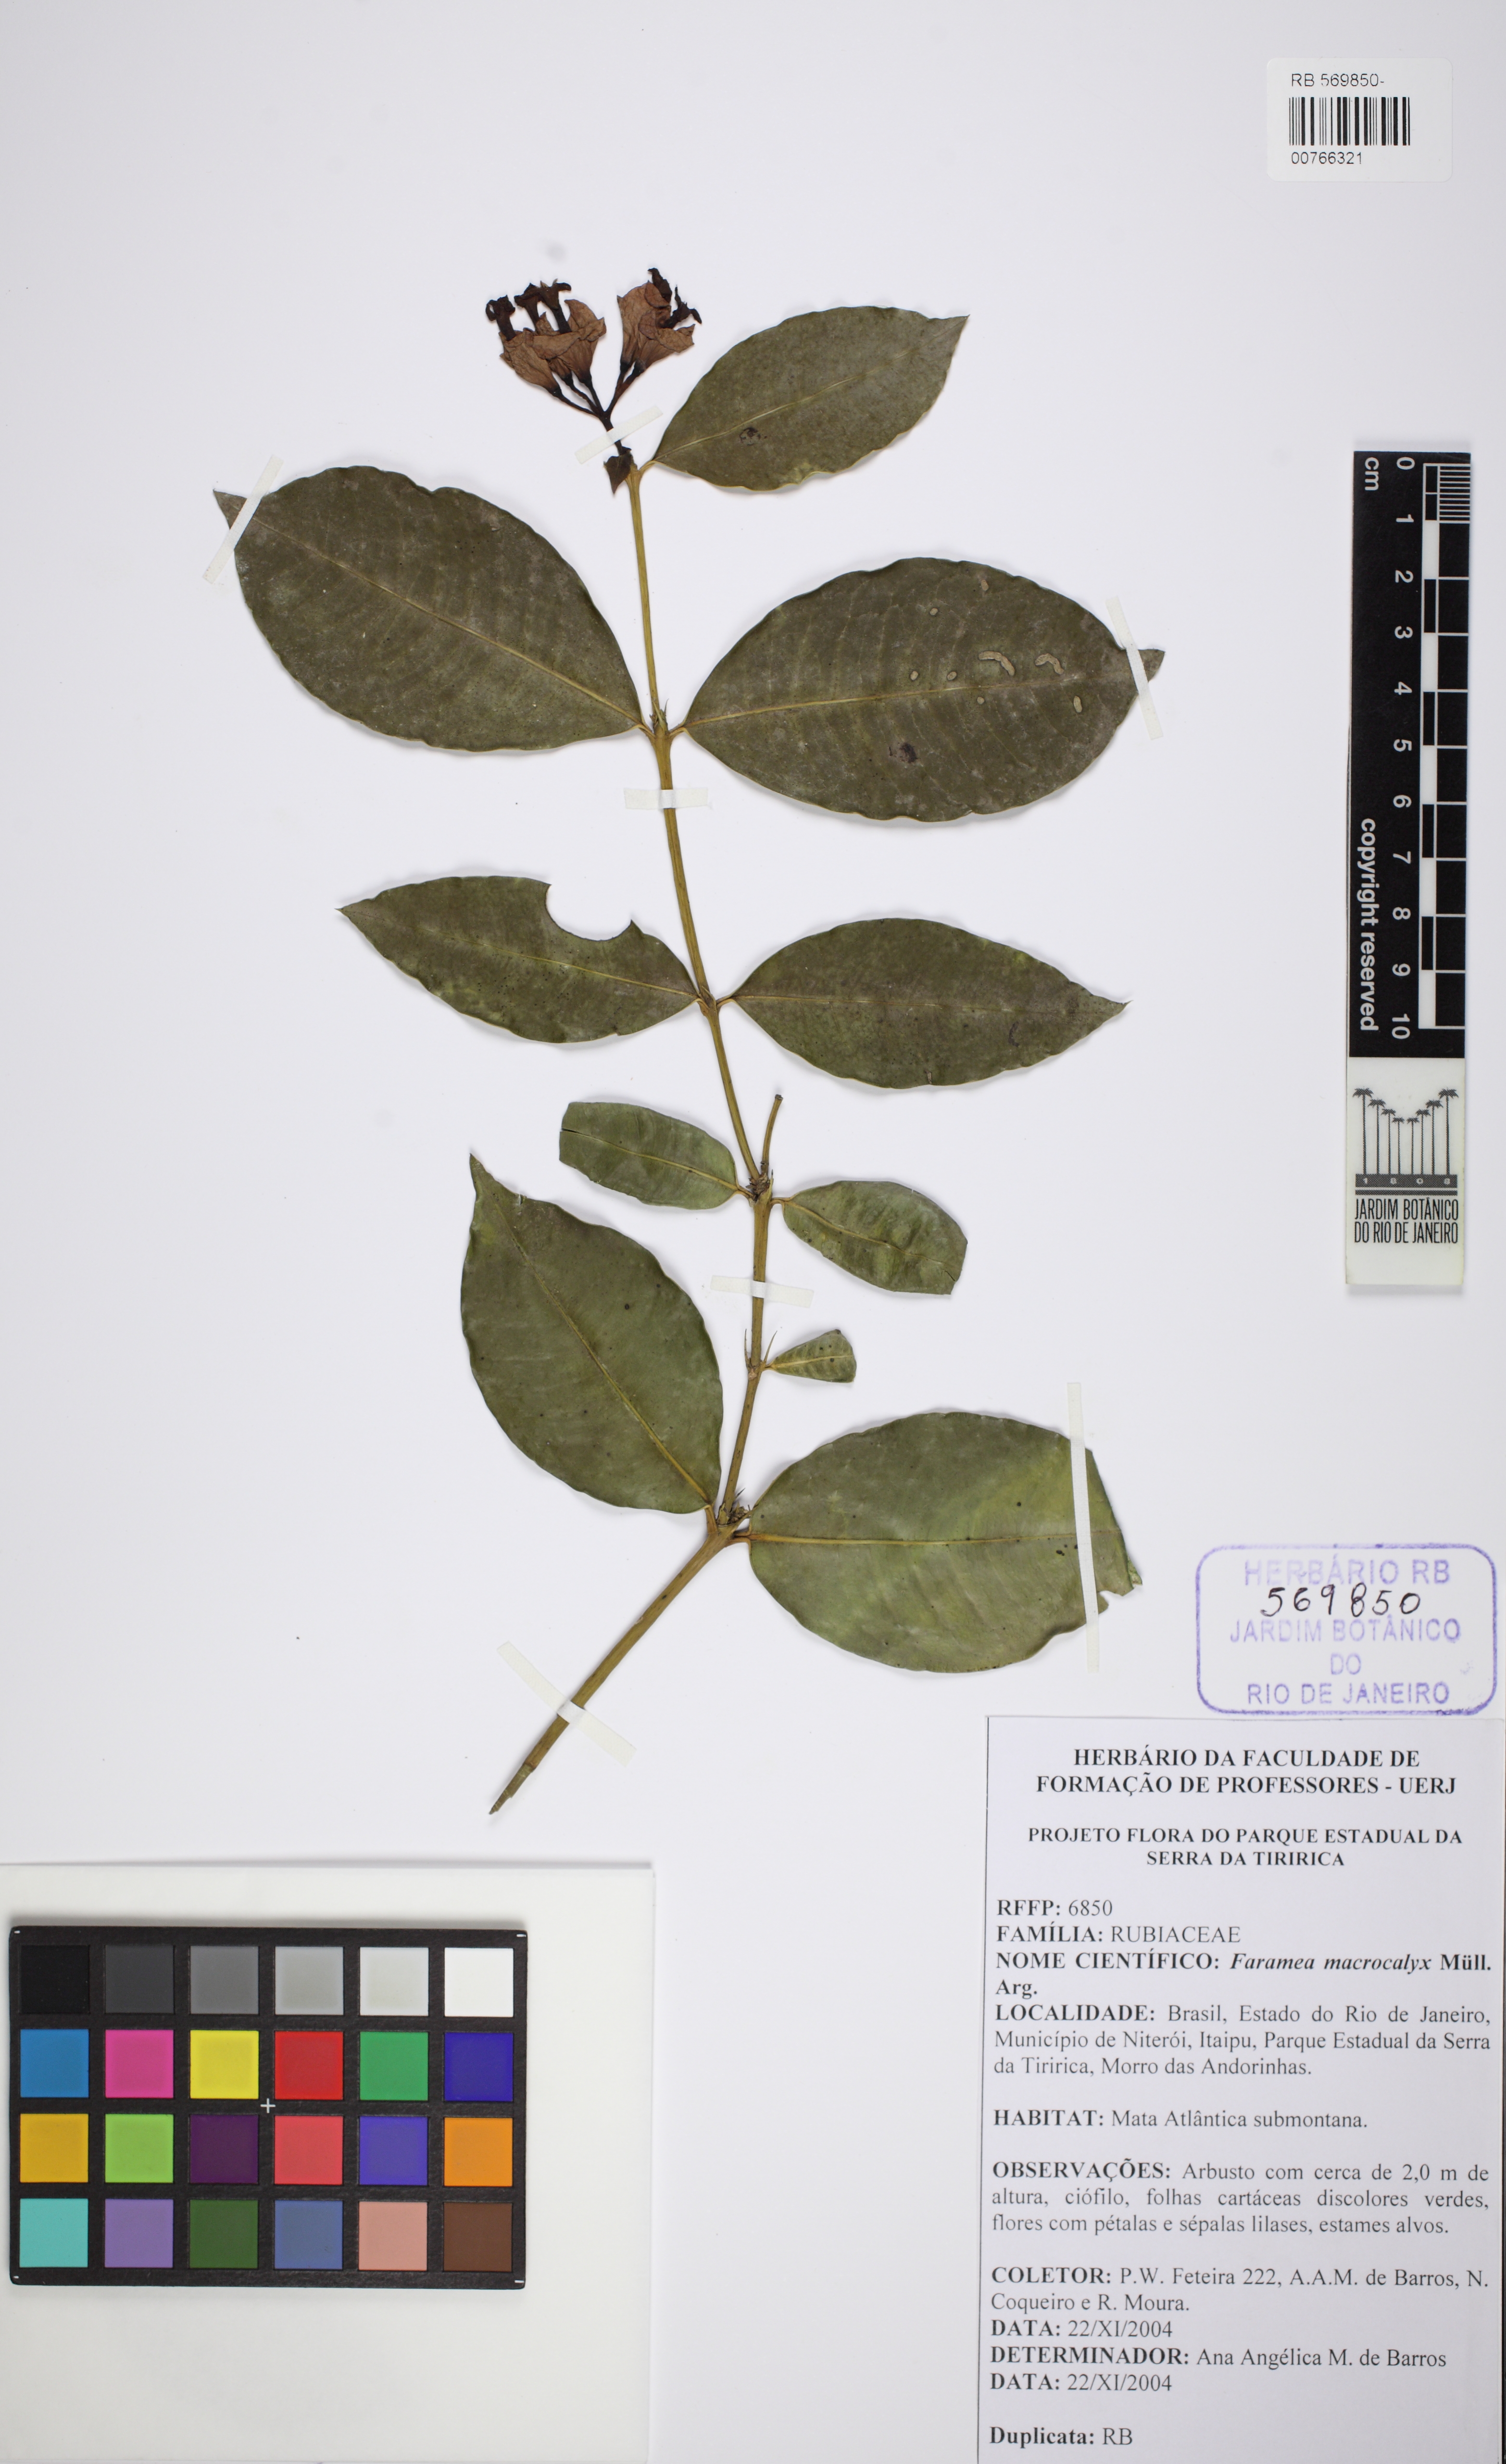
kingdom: Plantae
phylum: Tracheophyta
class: Magnoliopsida
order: Gentianales
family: Rubiaceae
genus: Faramea
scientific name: Faramea calyciflora
